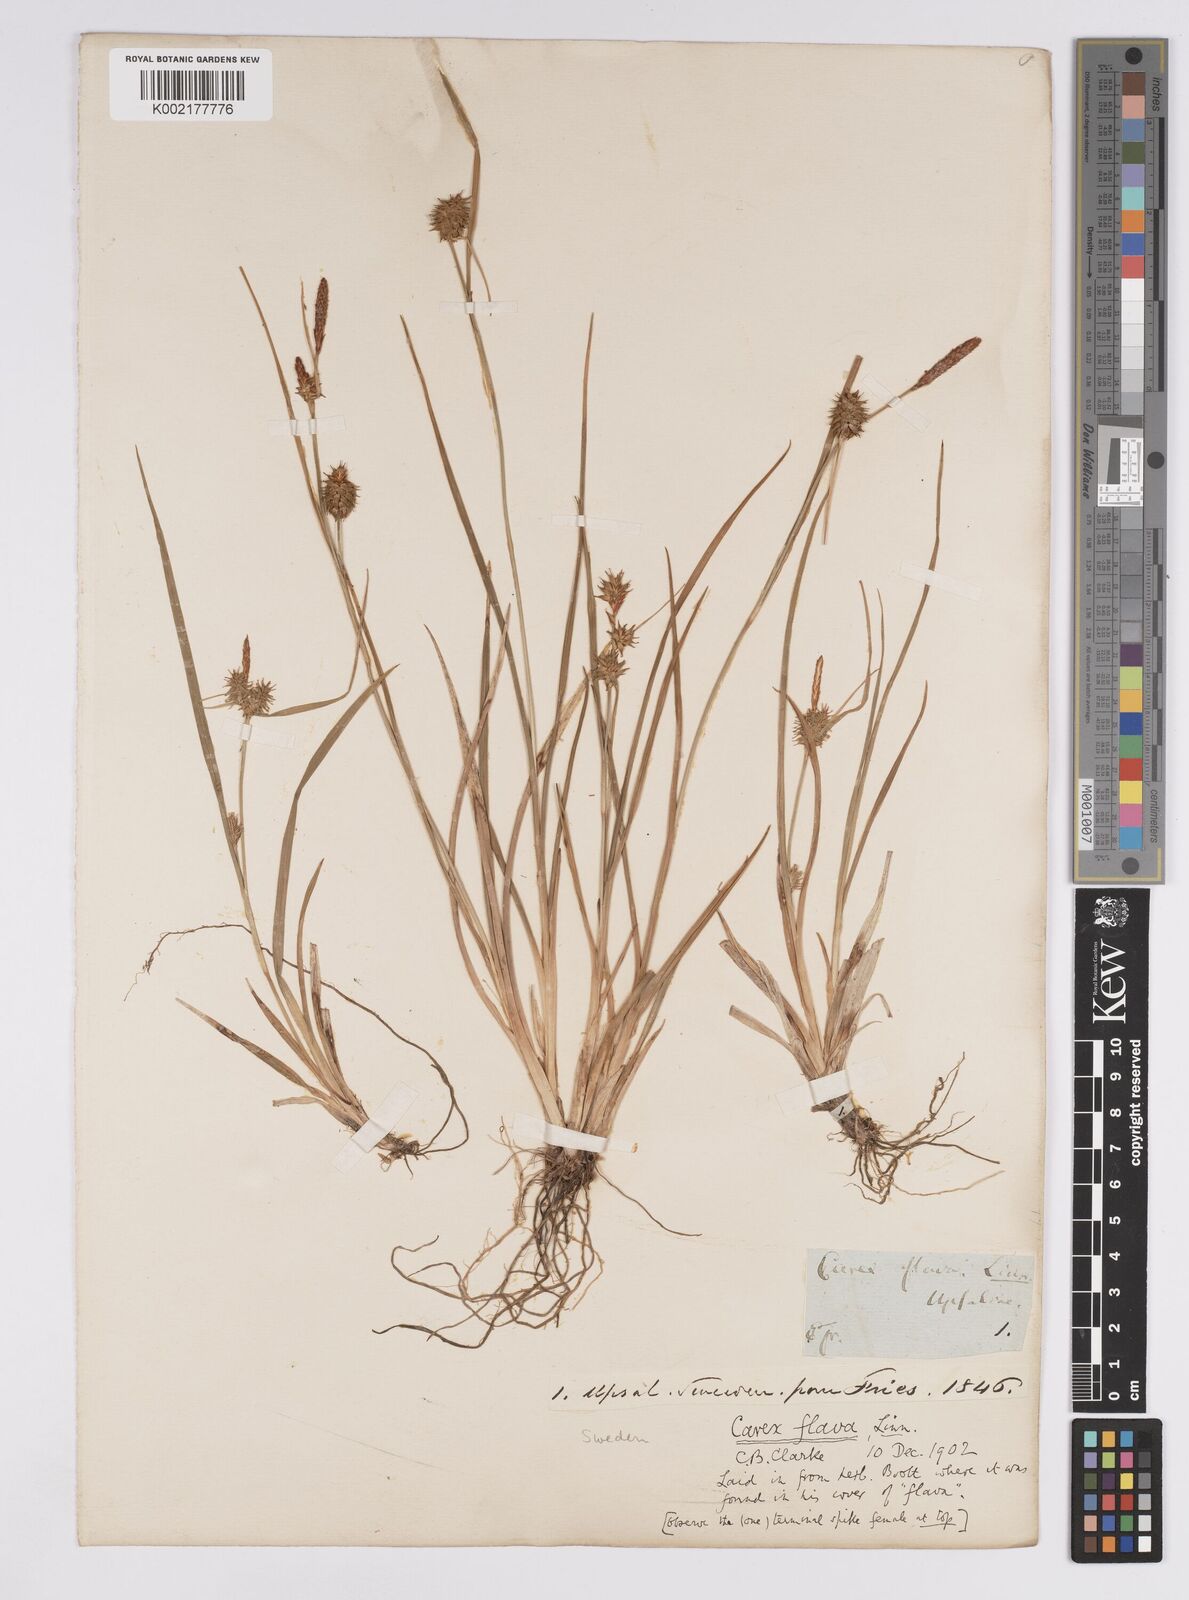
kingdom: Plantae
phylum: Tracheophyta
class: Liliopsida
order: Poales
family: Cyperaceae
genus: Carex
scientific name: Carex flava
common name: Large yellow-sedge
